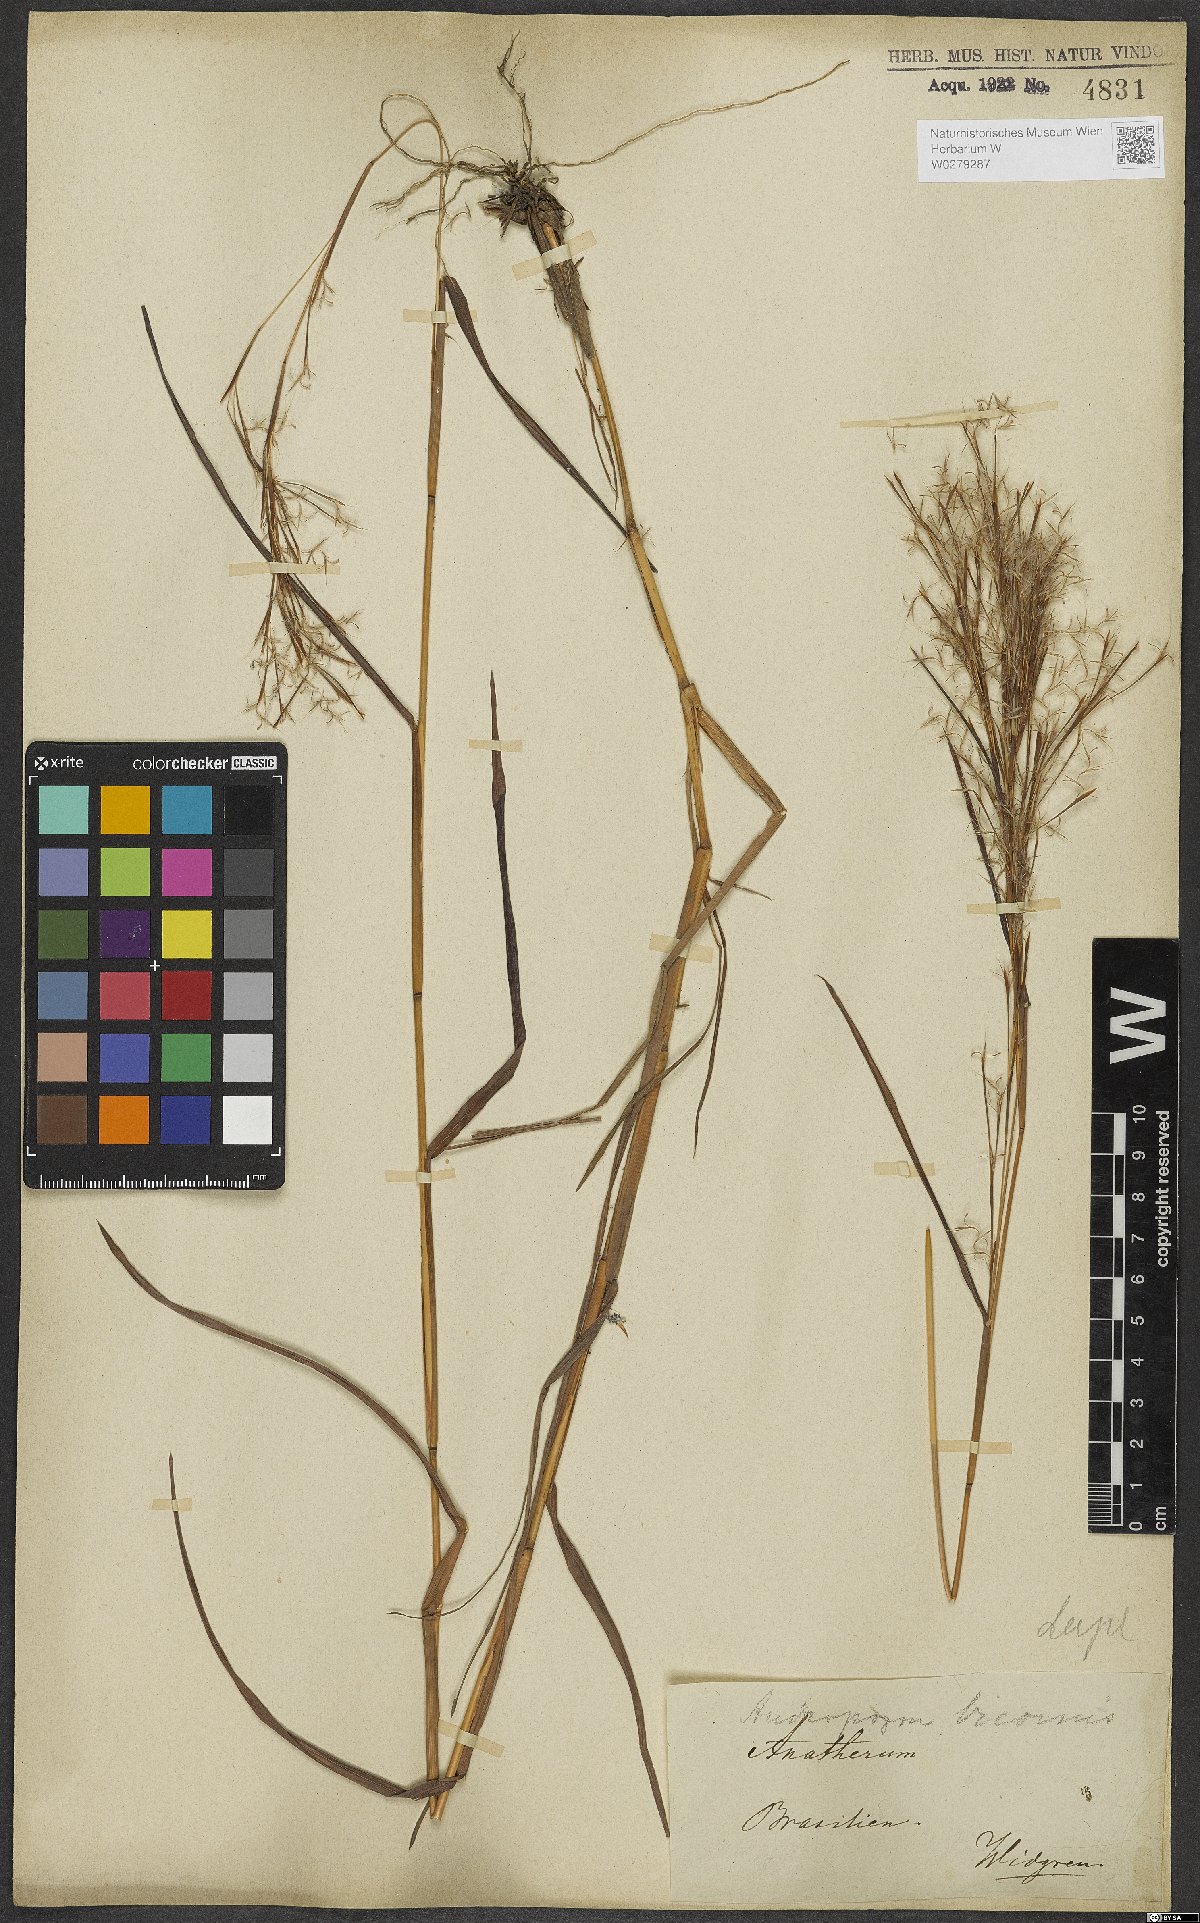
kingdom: Plantae
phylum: Tracheophyta
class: Liliopsida
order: Poales
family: Poaceae
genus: Andropogon
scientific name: Andropogon bicornis
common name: West indian foxtail grass
